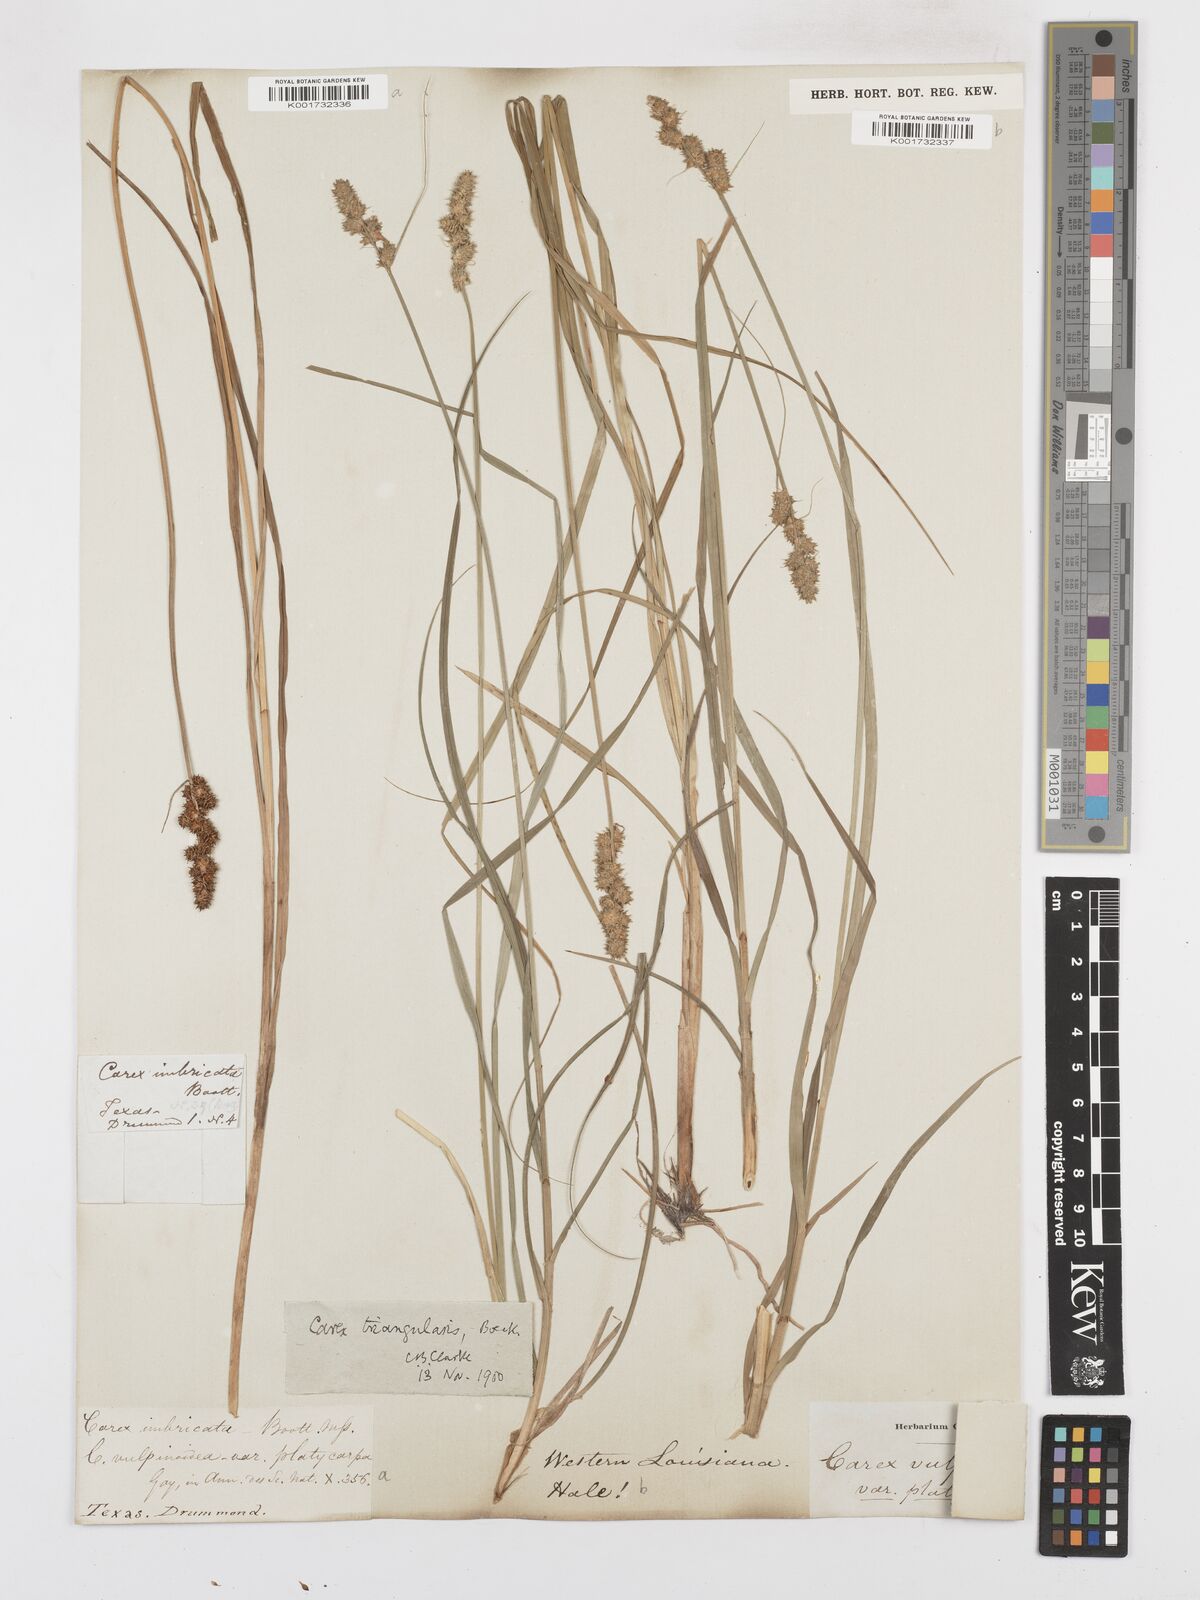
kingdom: Plantae
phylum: Tracheophyta
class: Liliopsida
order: Poales
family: Cyperaceae
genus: Carex
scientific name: Carex triangularis
